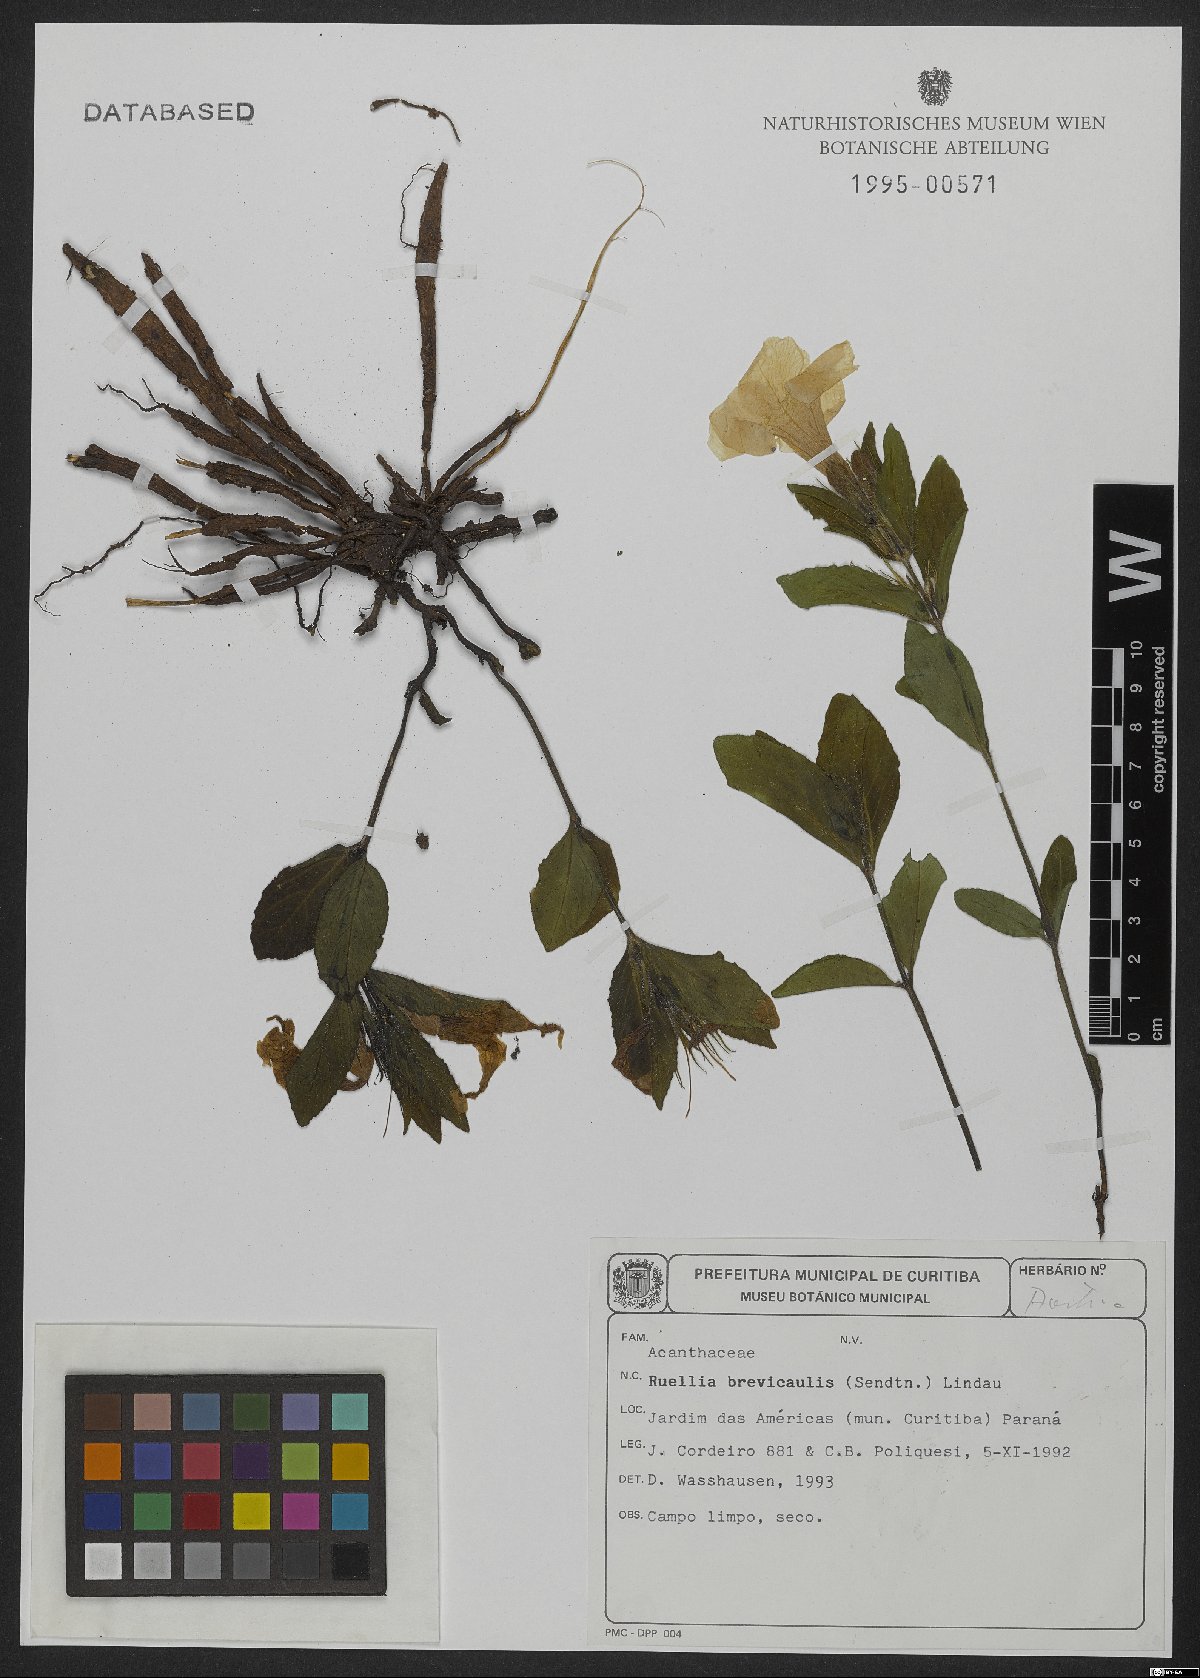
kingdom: Plantae
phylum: Tracheophyta
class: Magnoliopsida
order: Lamiales
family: Acanthaceae
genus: Ruellia
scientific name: Ruellia brevicaulis
